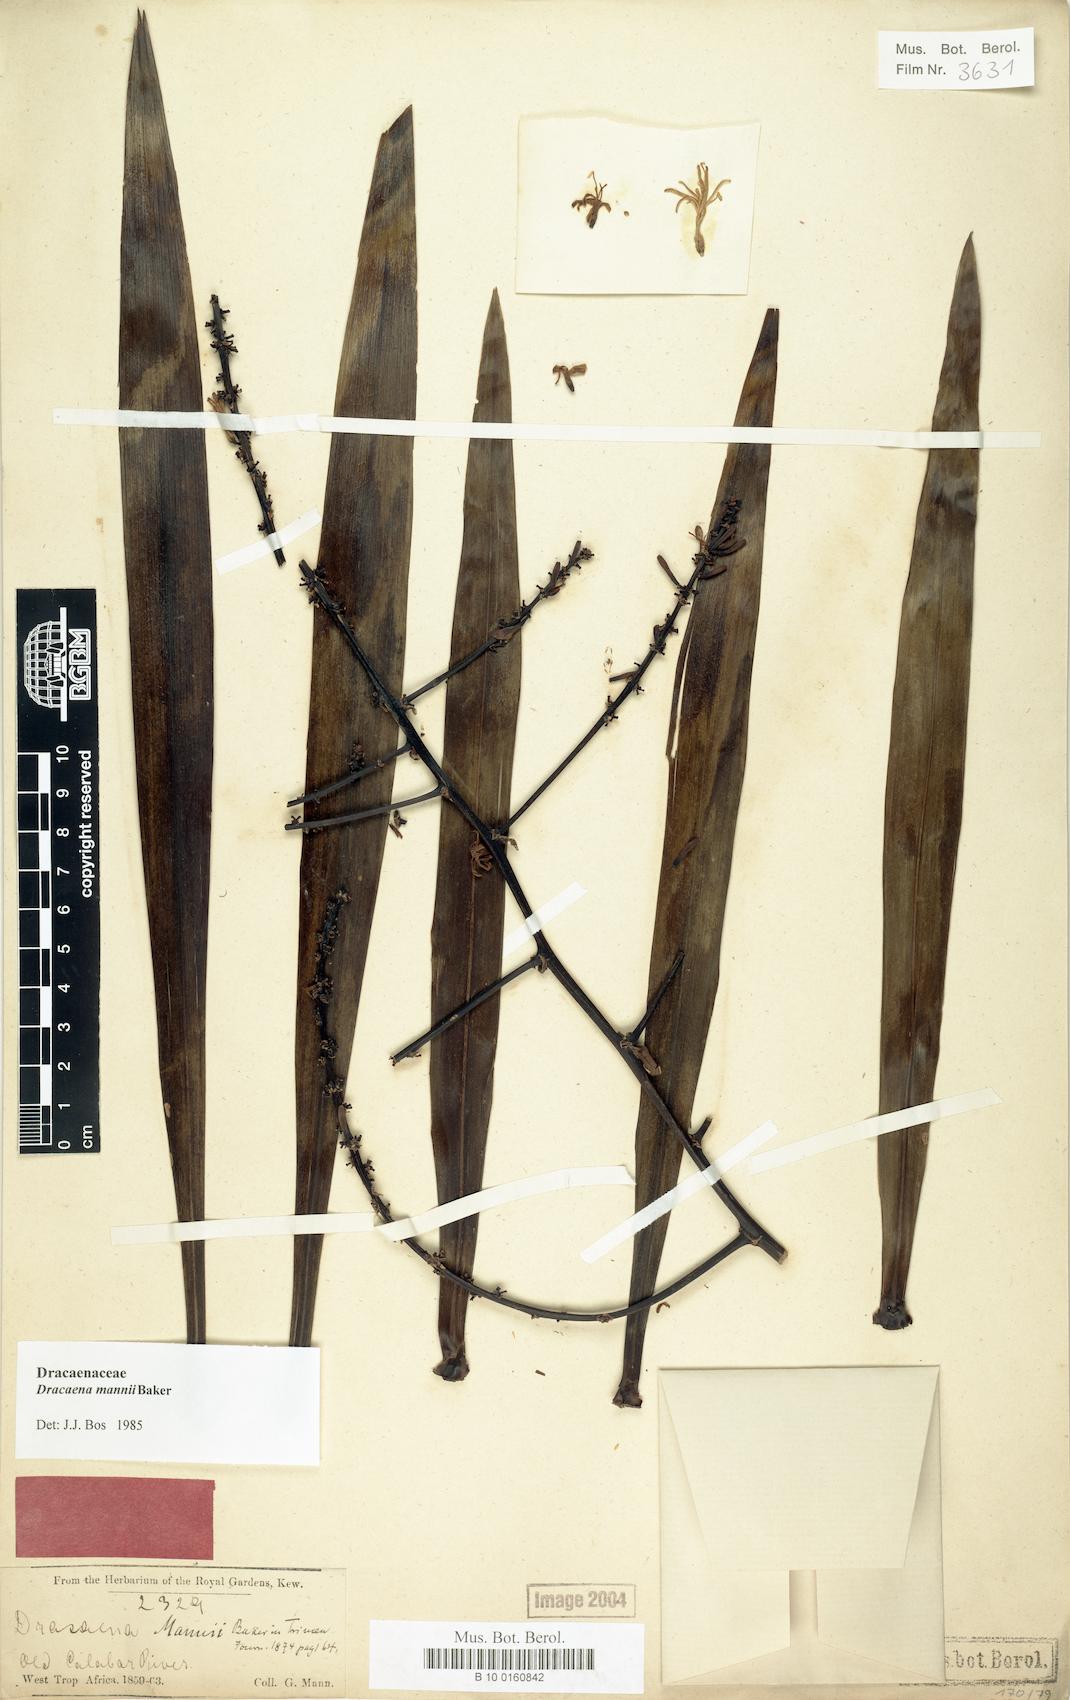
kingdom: Plantae
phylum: Tracheophyta
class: Liliopsida
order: Asparagales
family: Asparagaceae
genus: Dracaena
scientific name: Dracaena mannii
